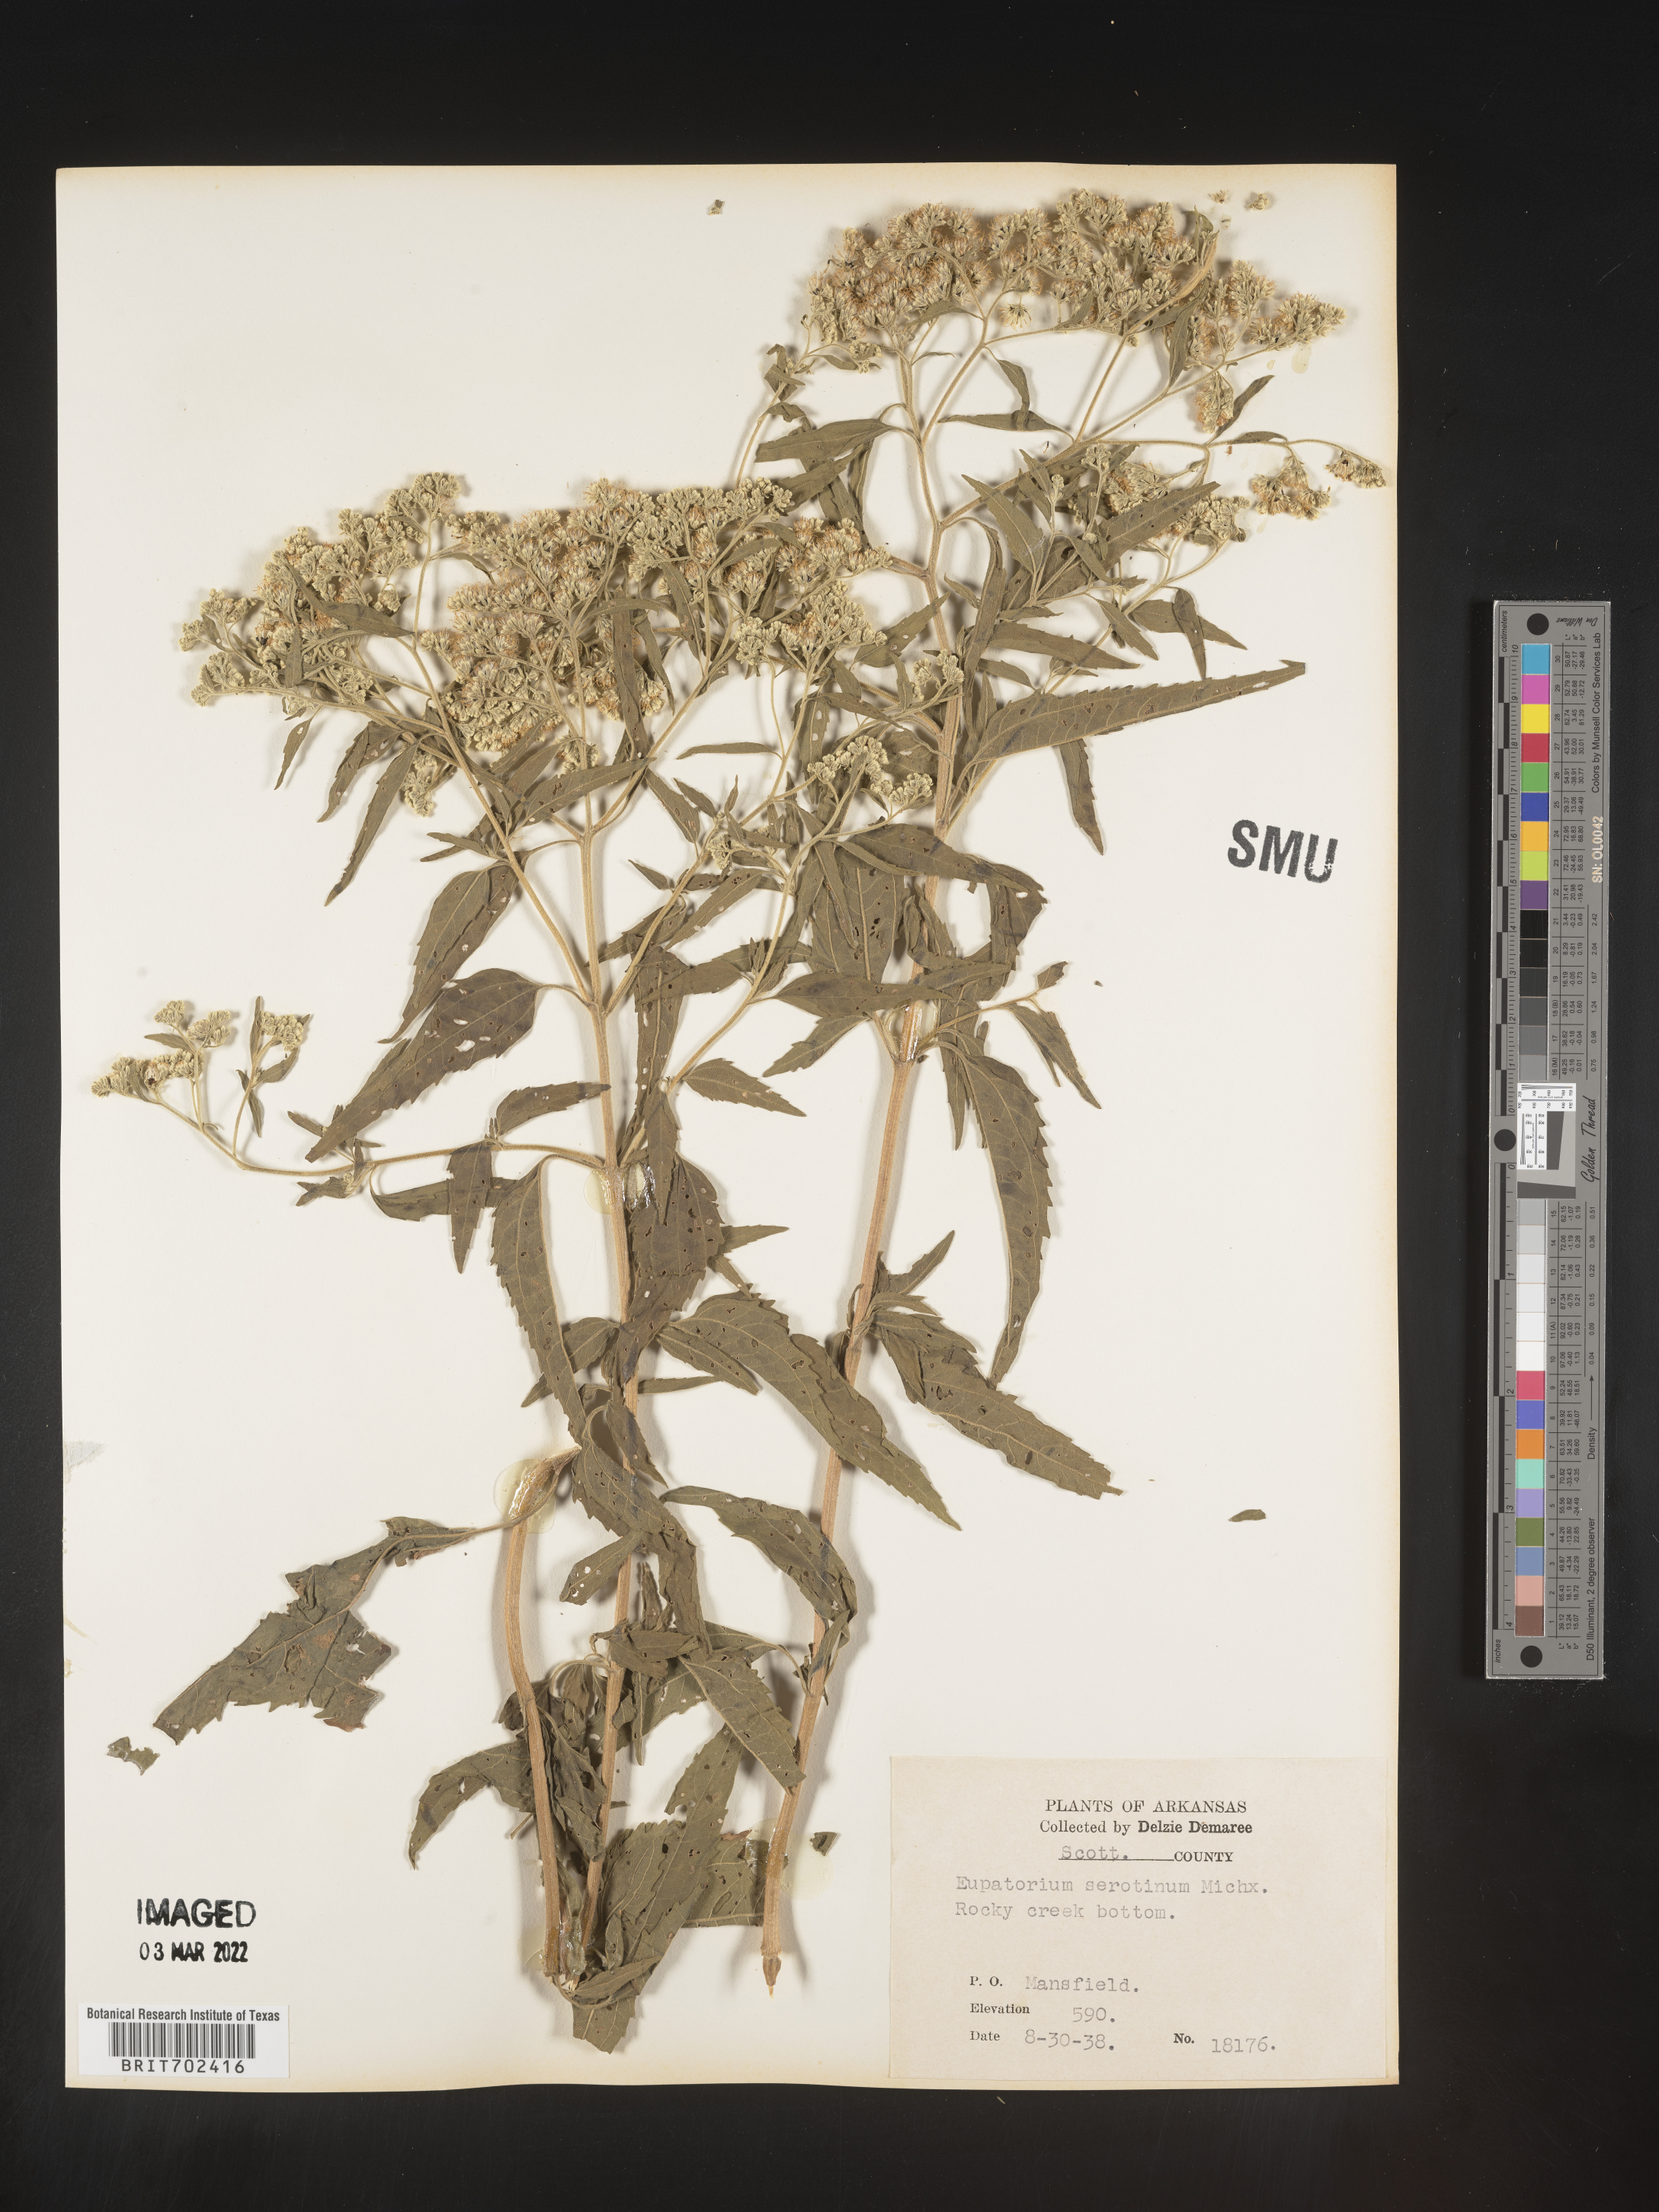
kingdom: Plantae
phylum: Tracheophyta
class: Magnoliopsida
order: Asterales
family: Asteraceae
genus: Eupatorium
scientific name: Eupatorium serotinum
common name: Late boneset
